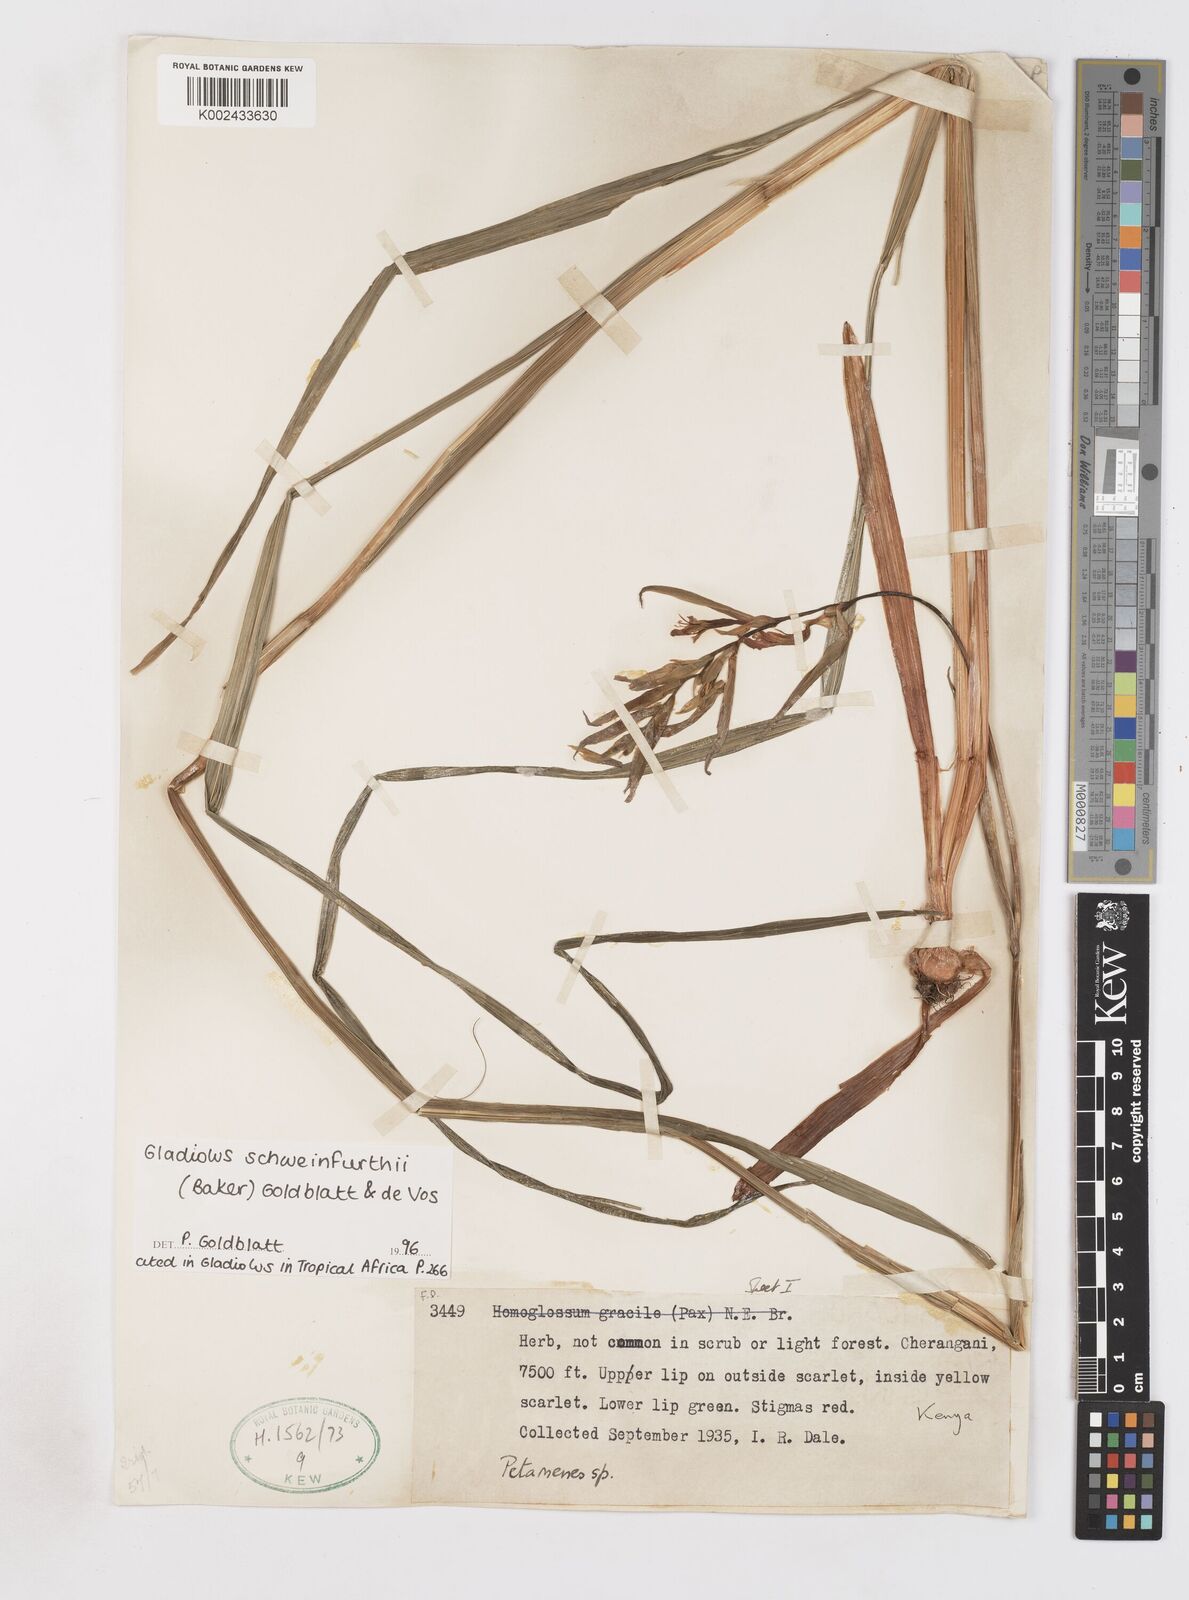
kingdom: Plantae
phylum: Tracheophyta
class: Liliopsida
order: Asparagales
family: Iridaceae
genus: Gladiolus
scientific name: Gladiolus schweinfurthii
